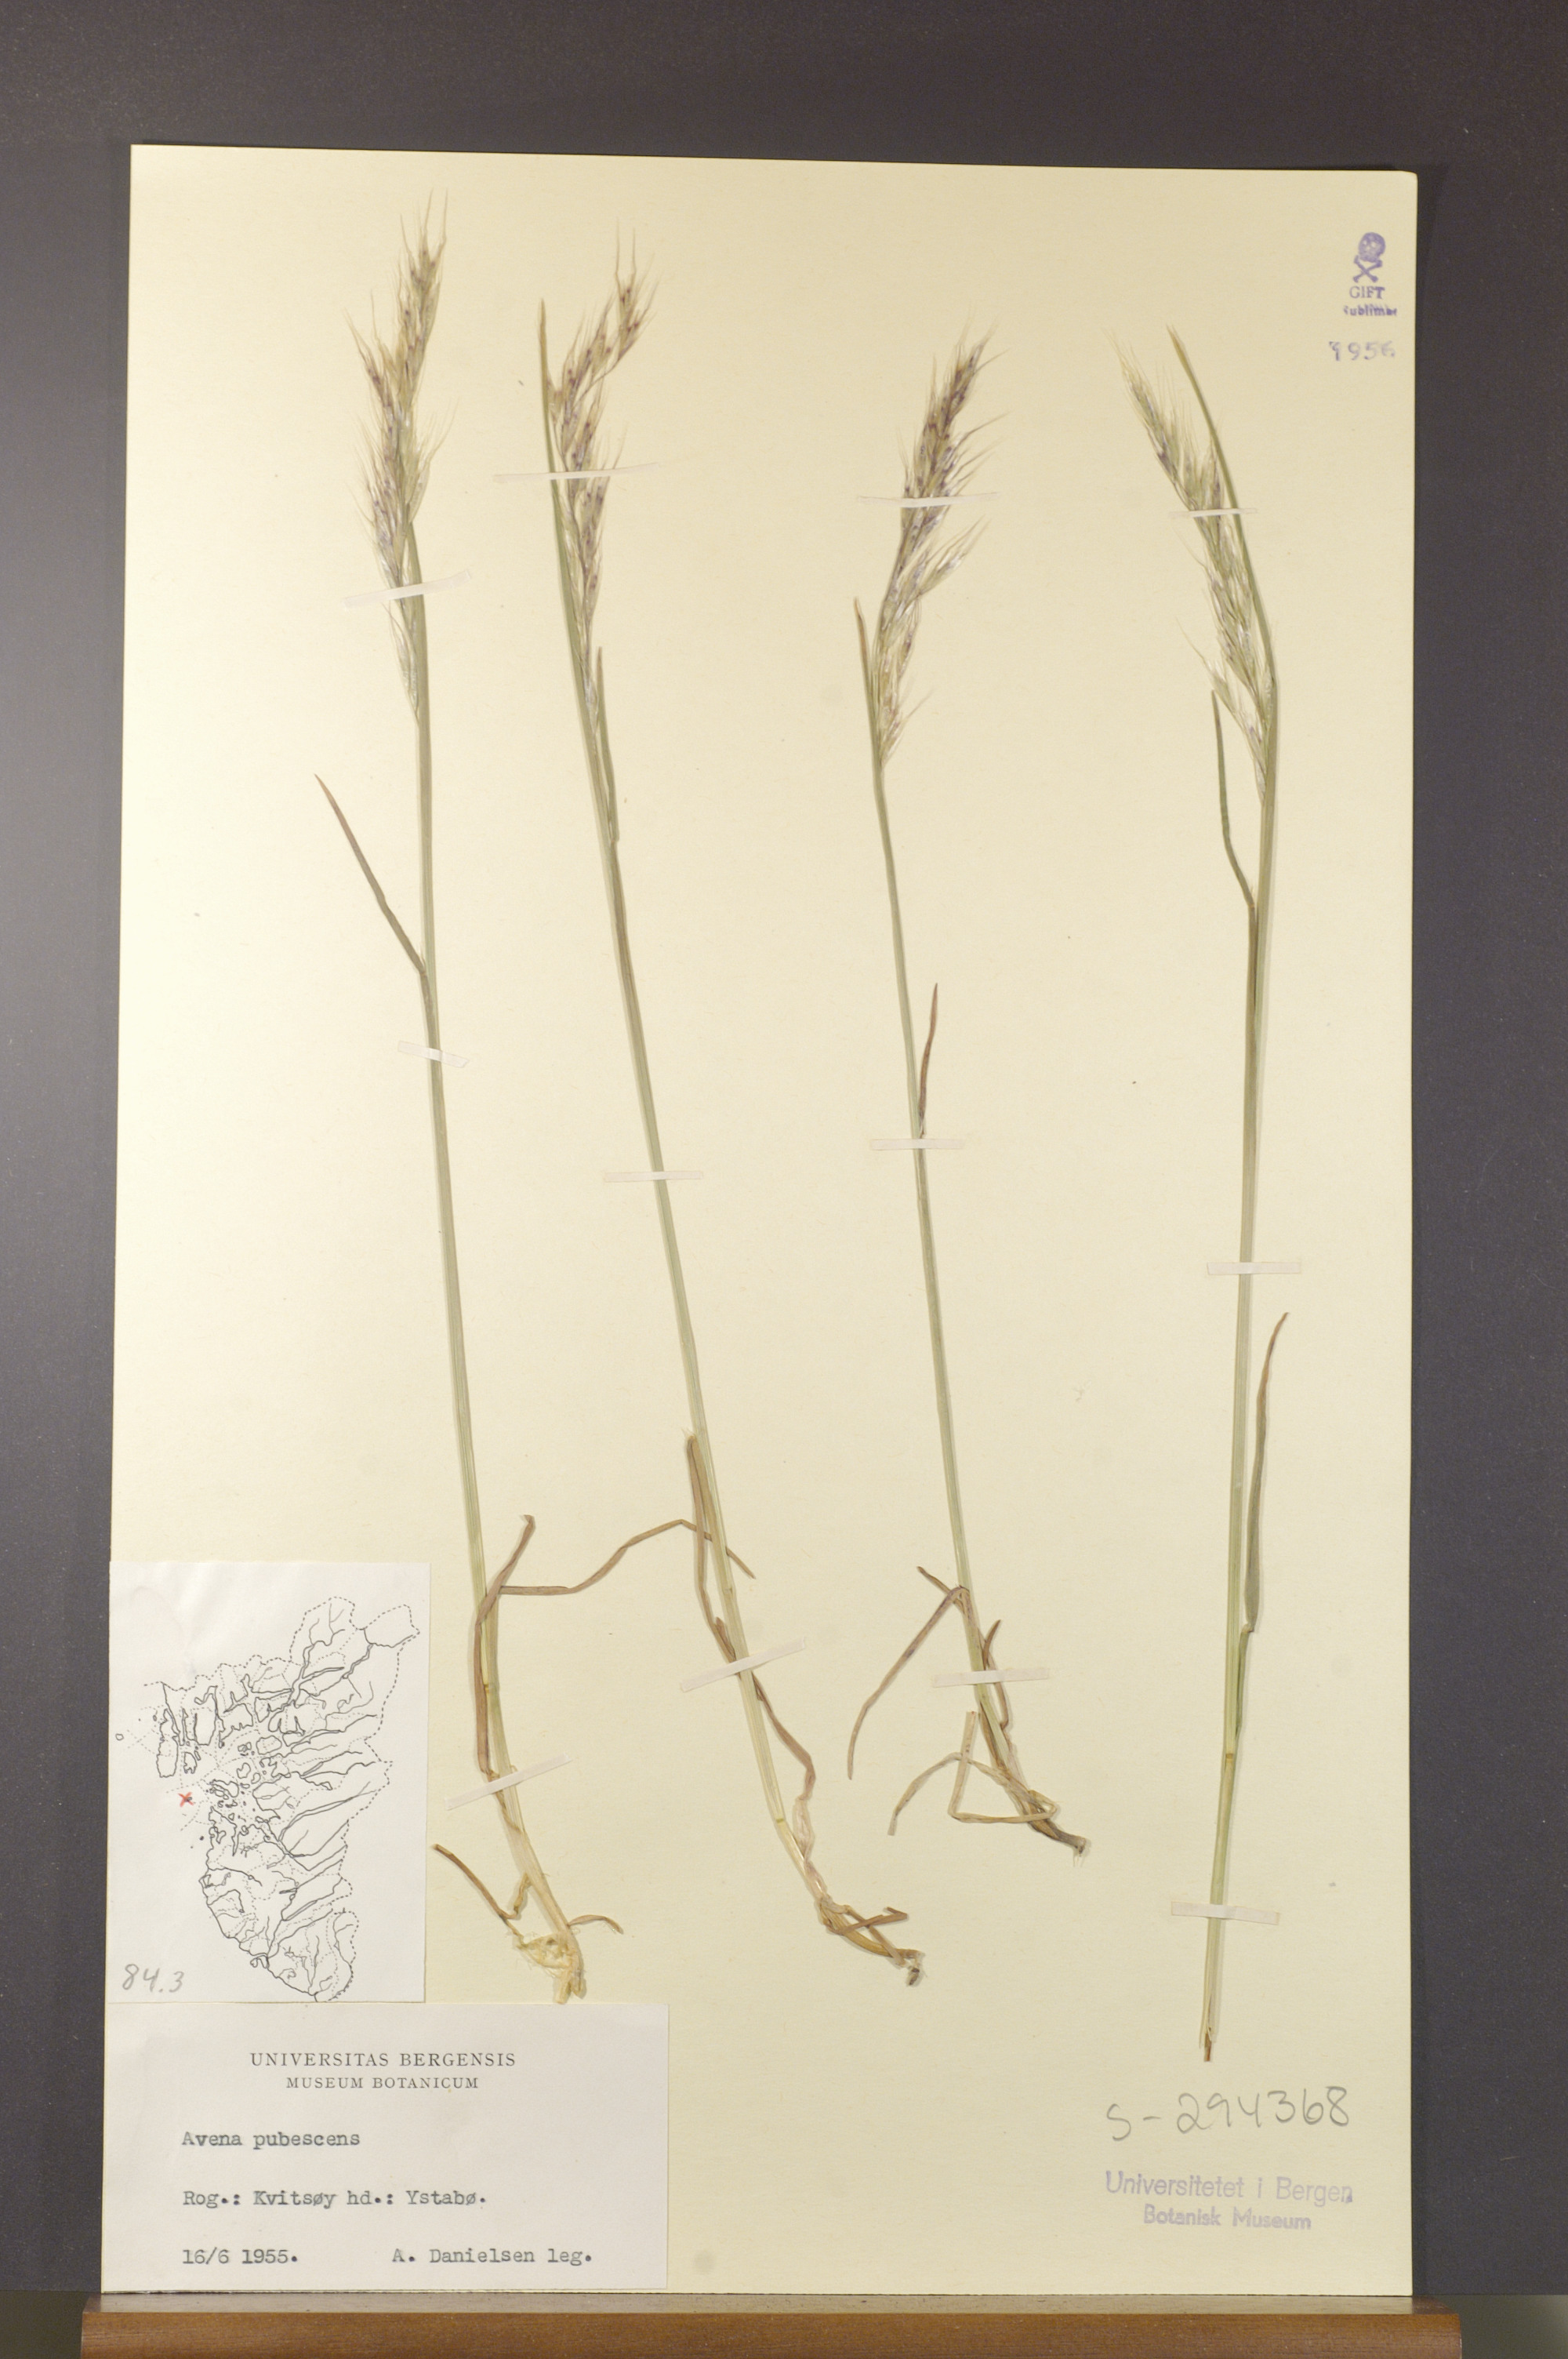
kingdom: Plantae
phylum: Tracheophyta
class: Liliopsida
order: Poales
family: Poaceae
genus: Avenula
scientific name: Avenula pubescens
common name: Downy alpine oatgrass
